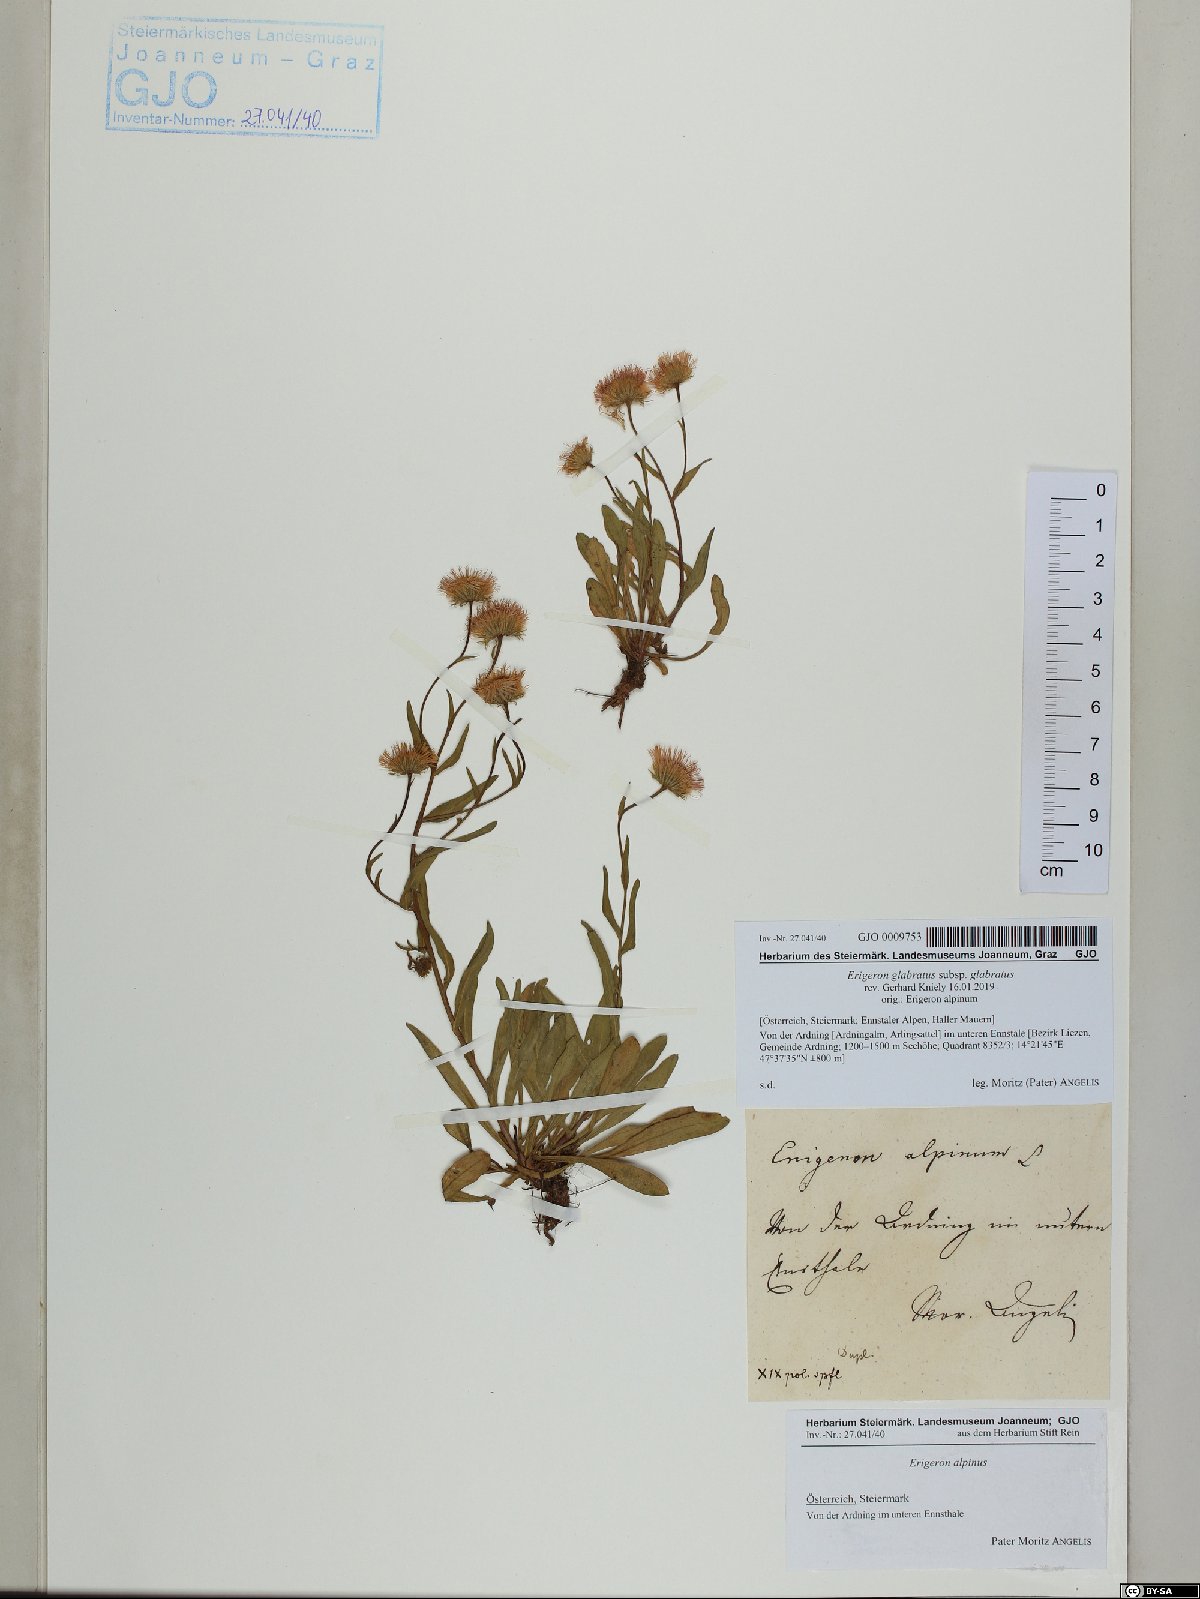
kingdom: Plantae
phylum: Tracheophyta
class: Magnoliopsida
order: Asterales
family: Asteraceae
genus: Erigeron
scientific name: Erigeron glabratus
